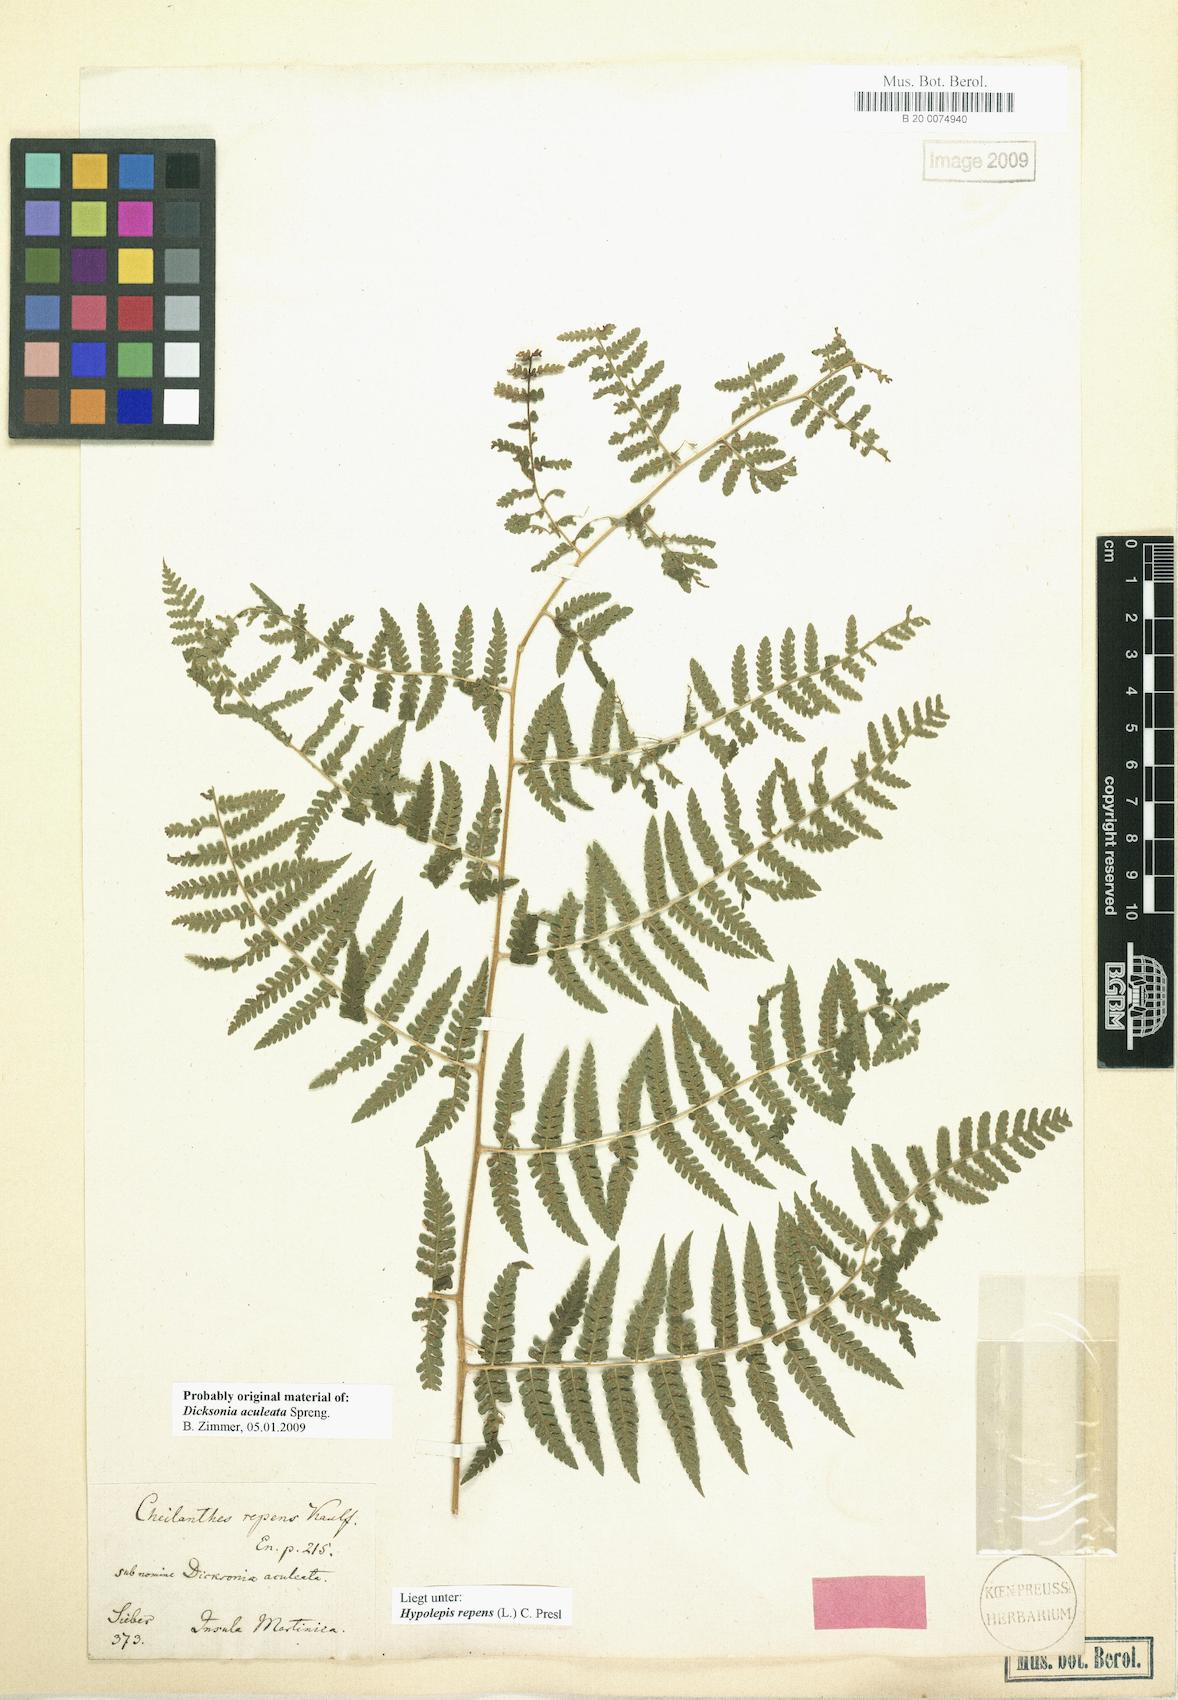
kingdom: Plantae
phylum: Tracheophyta
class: Polypodiopsida
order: Polypodiales
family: Dennstaedtiaceae
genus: Hypolepis
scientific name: Hypolepis repens
